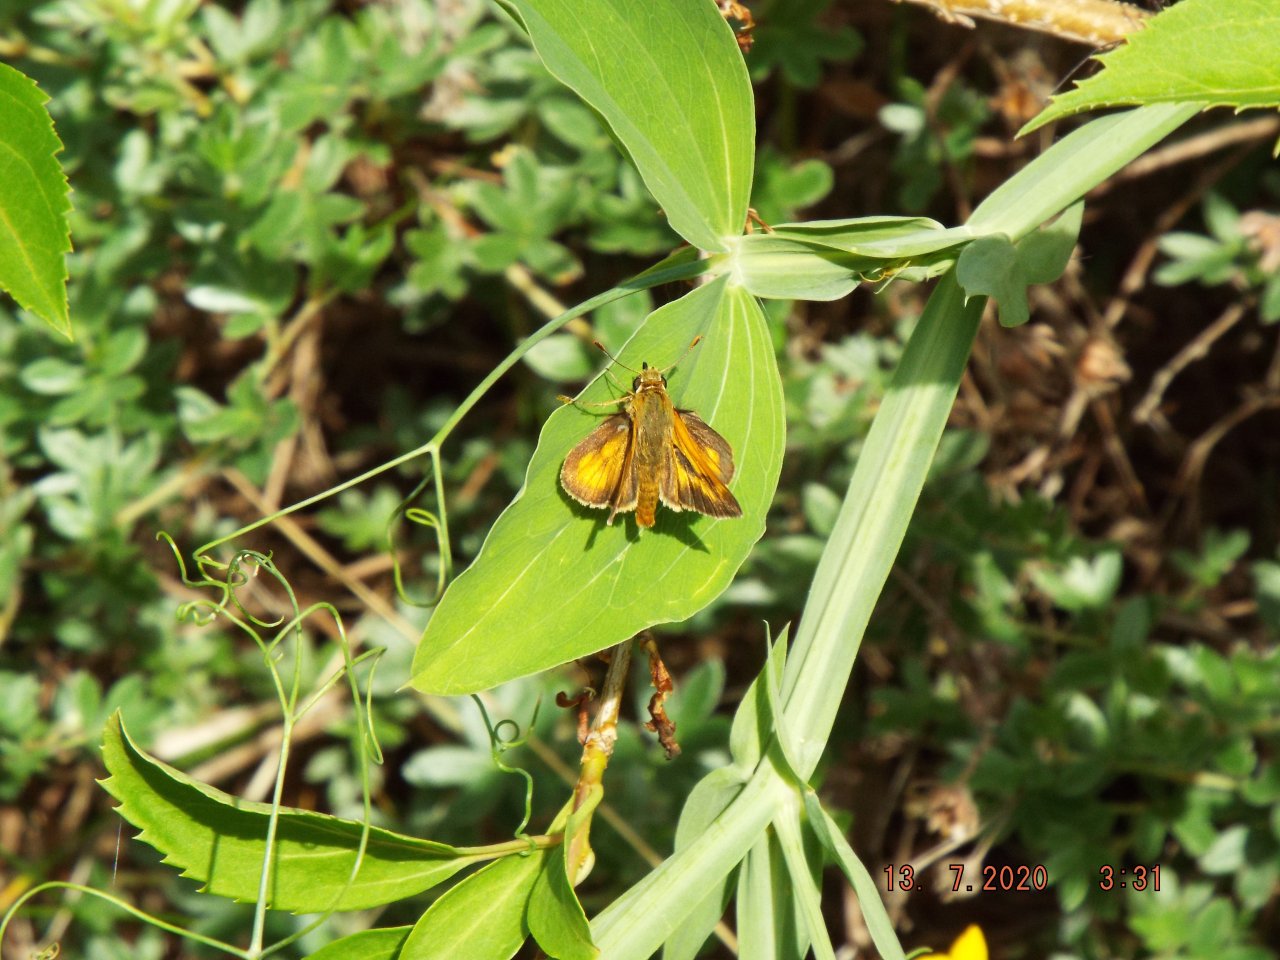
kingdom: Animalia
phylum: Arthropoda
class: Insecta
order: Lepidoptera
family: Hesperiidae
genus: Polites
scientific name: Polites
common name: Long Dash Skipper
